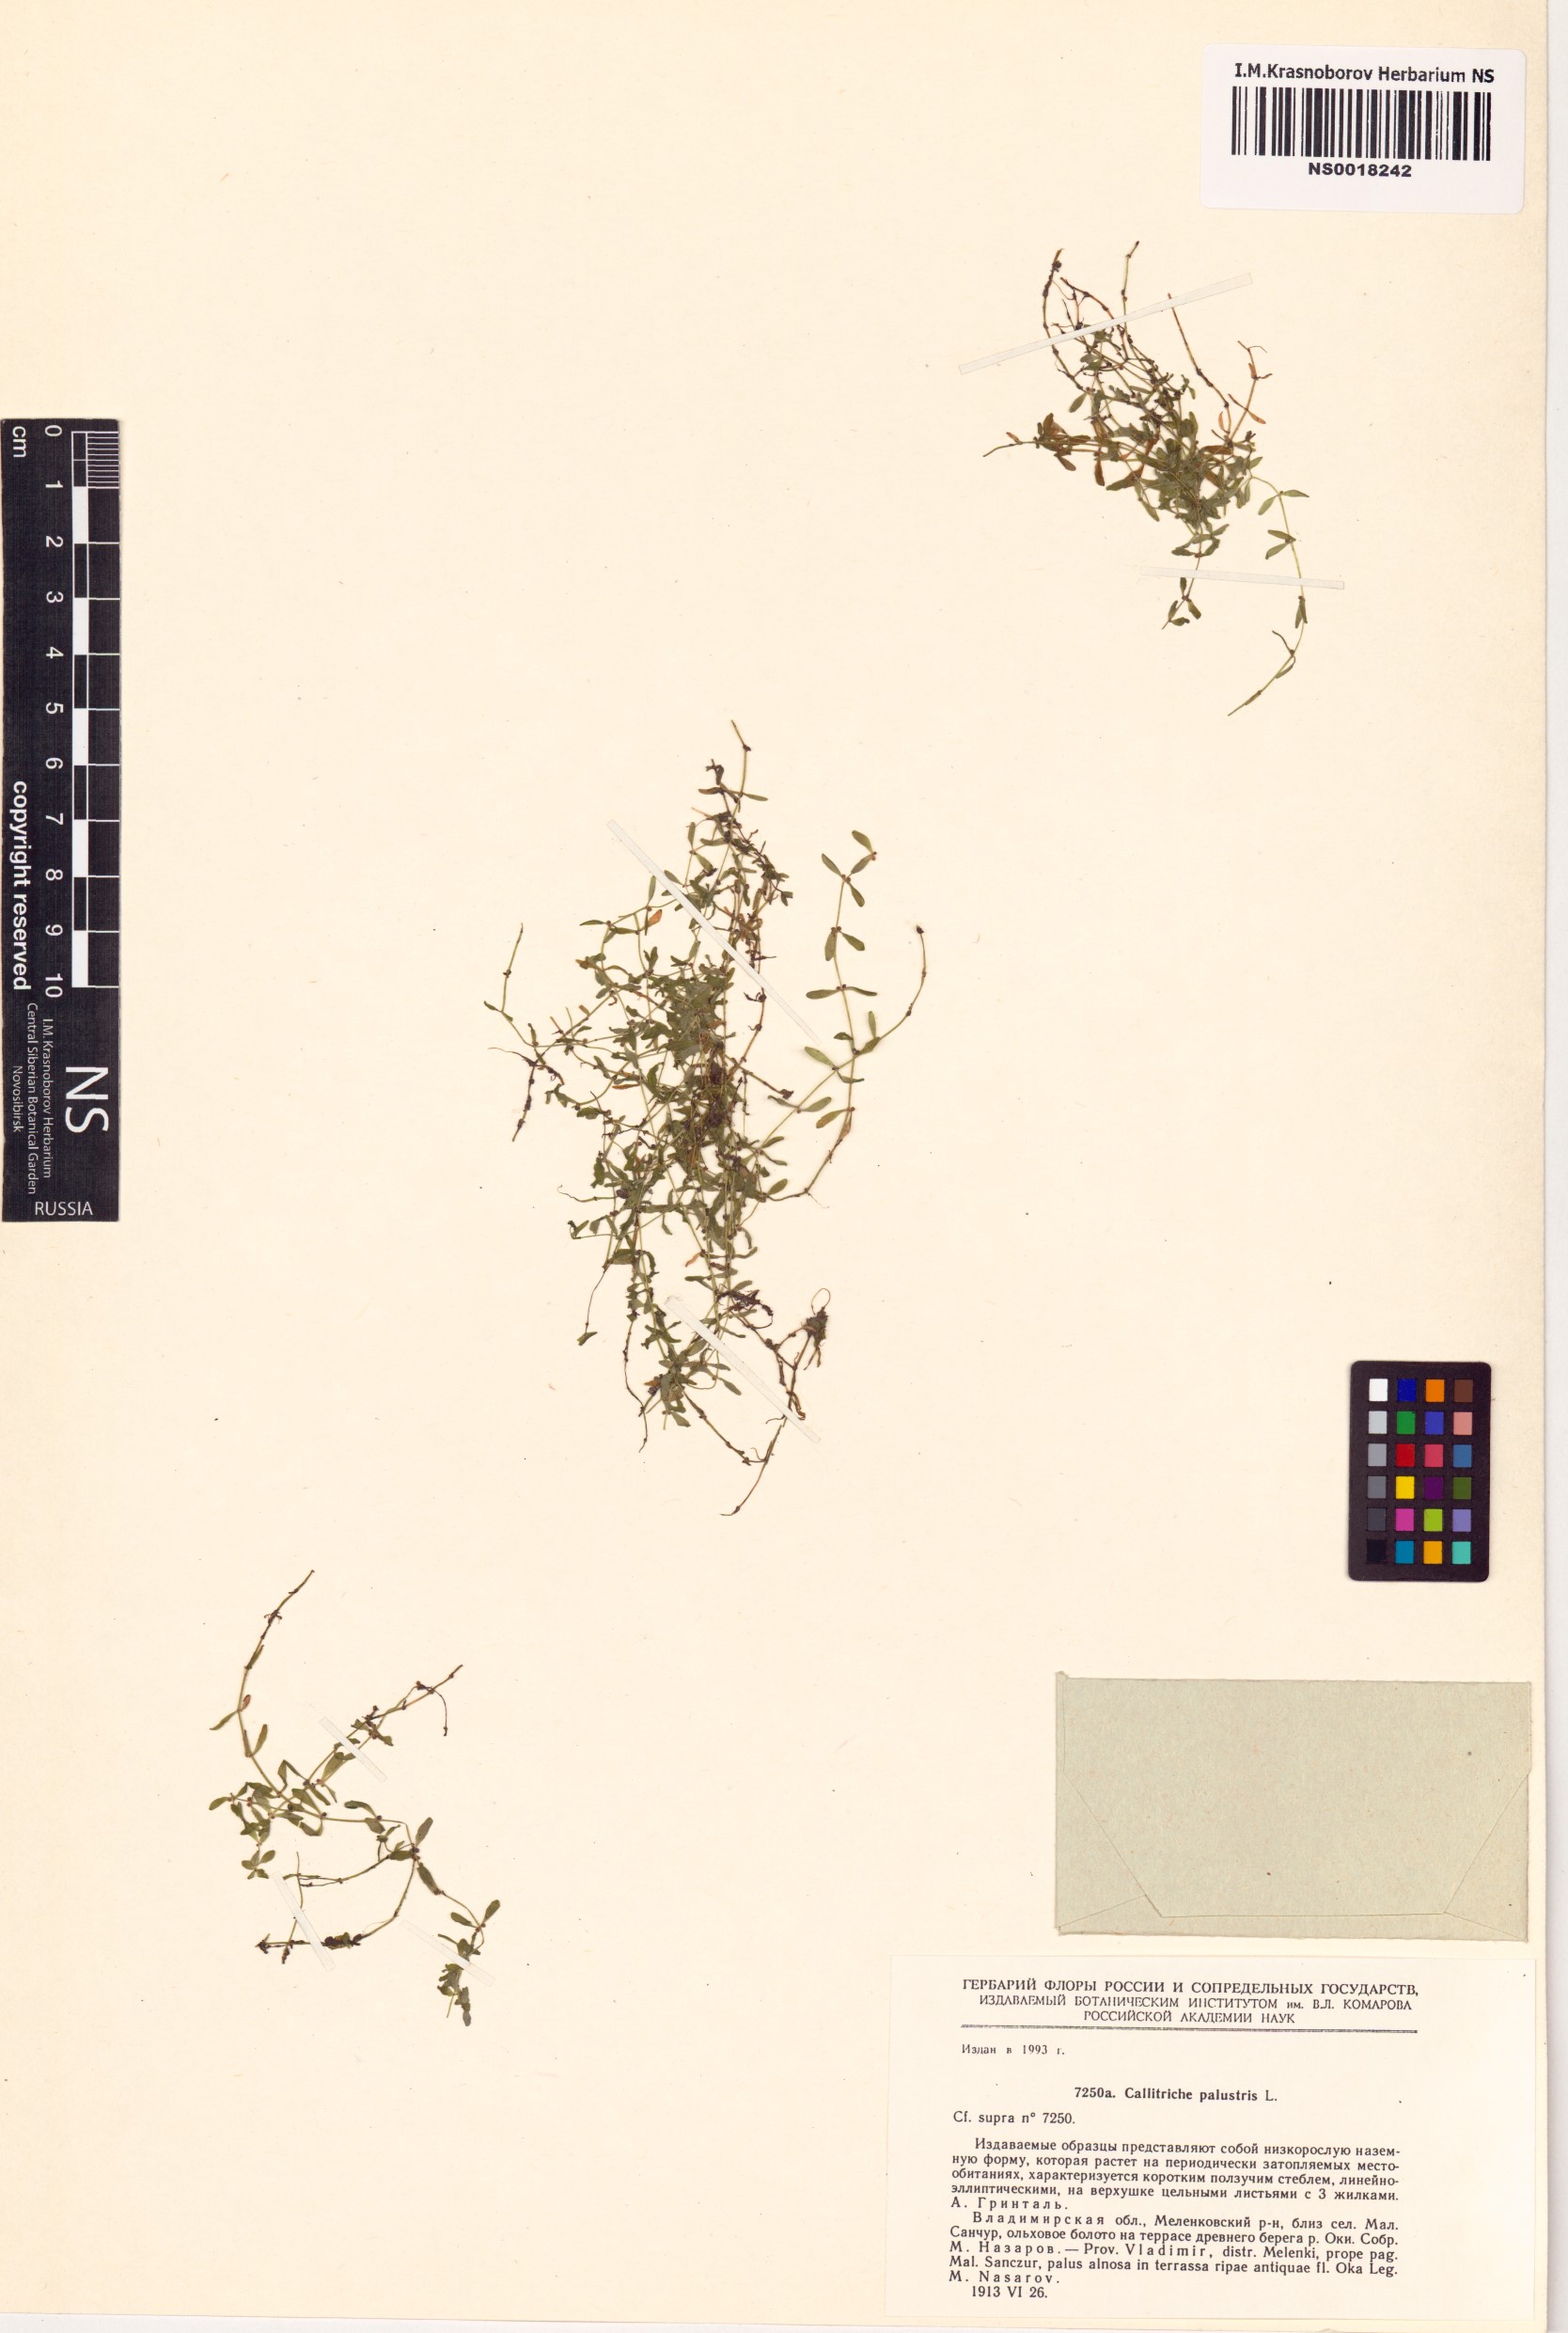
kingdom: Plantae
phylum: Tracheophyta
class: Magnoliopsida
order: Lamiales
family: Plantaginaceae
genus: Callitriche
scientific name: Callitriche palustris
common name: Spring water-starwort
